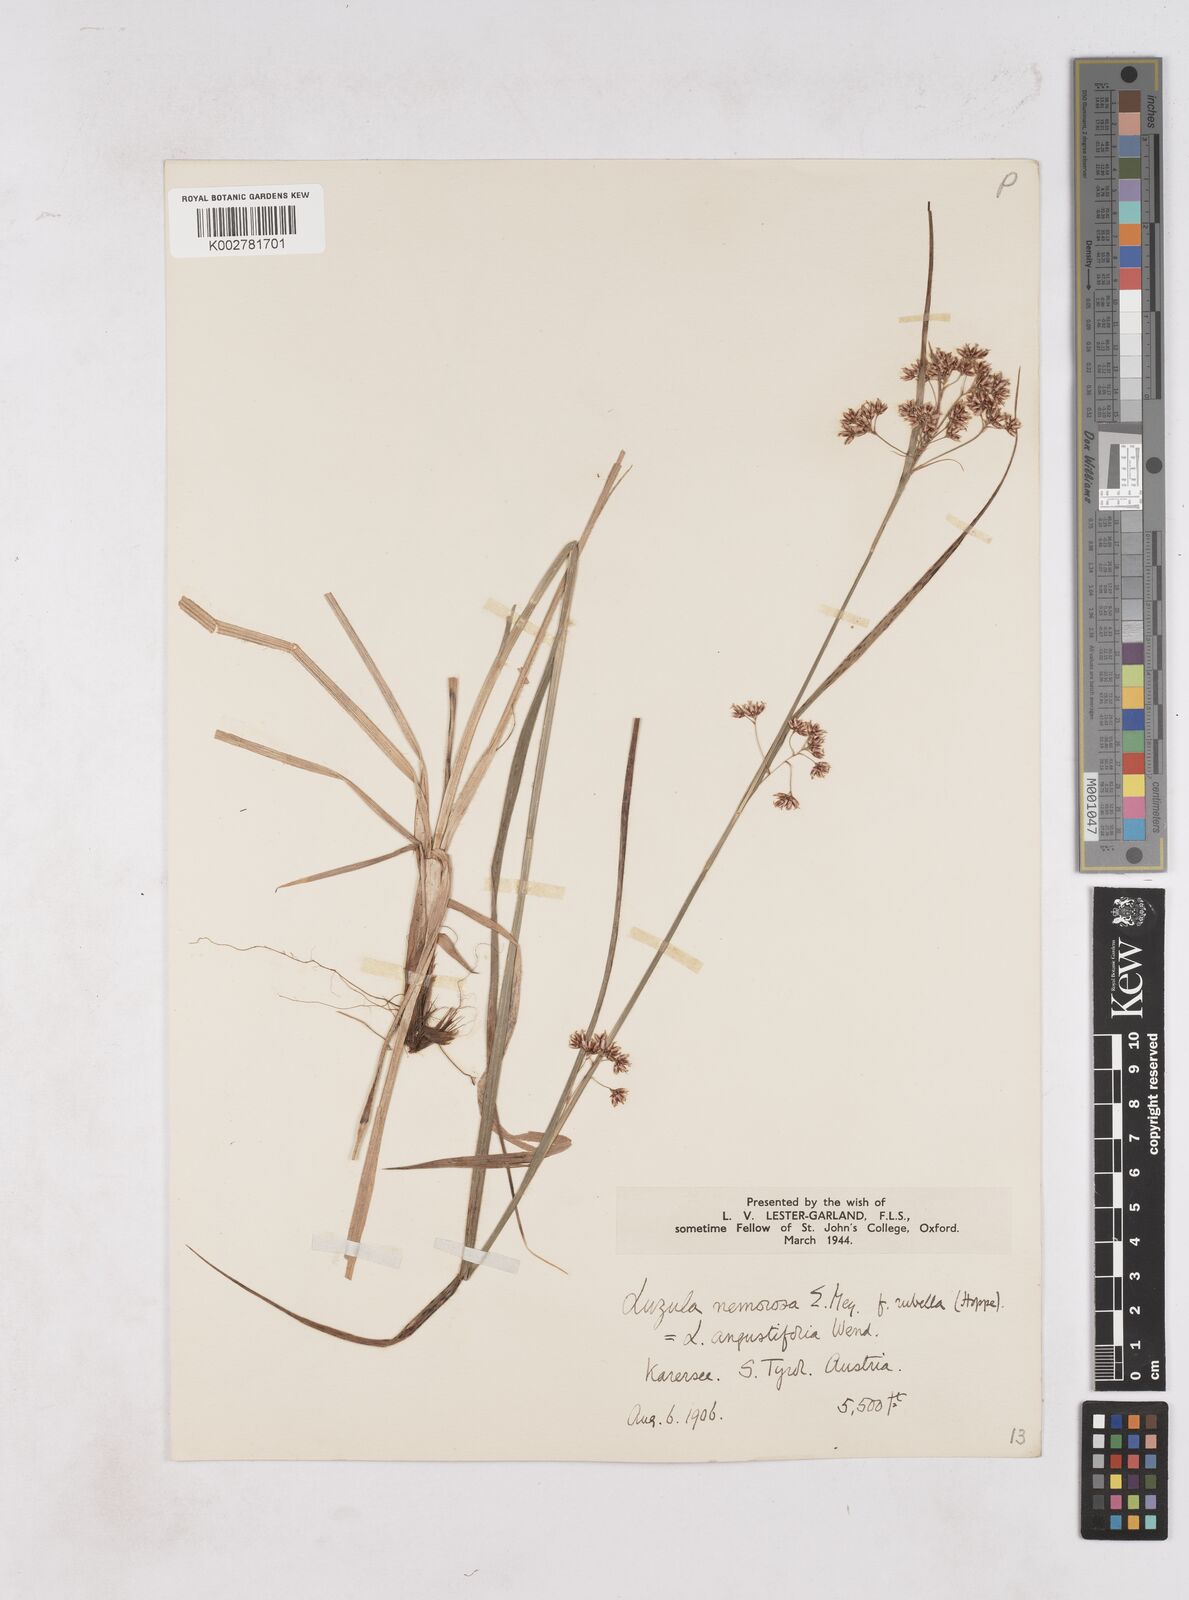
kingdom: Plantae
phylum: Tracheophyta
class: Liliopsida
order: Poales
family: Juncaceae
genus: Luzula
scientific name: Luzula luzuloides
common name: White wood-rush
